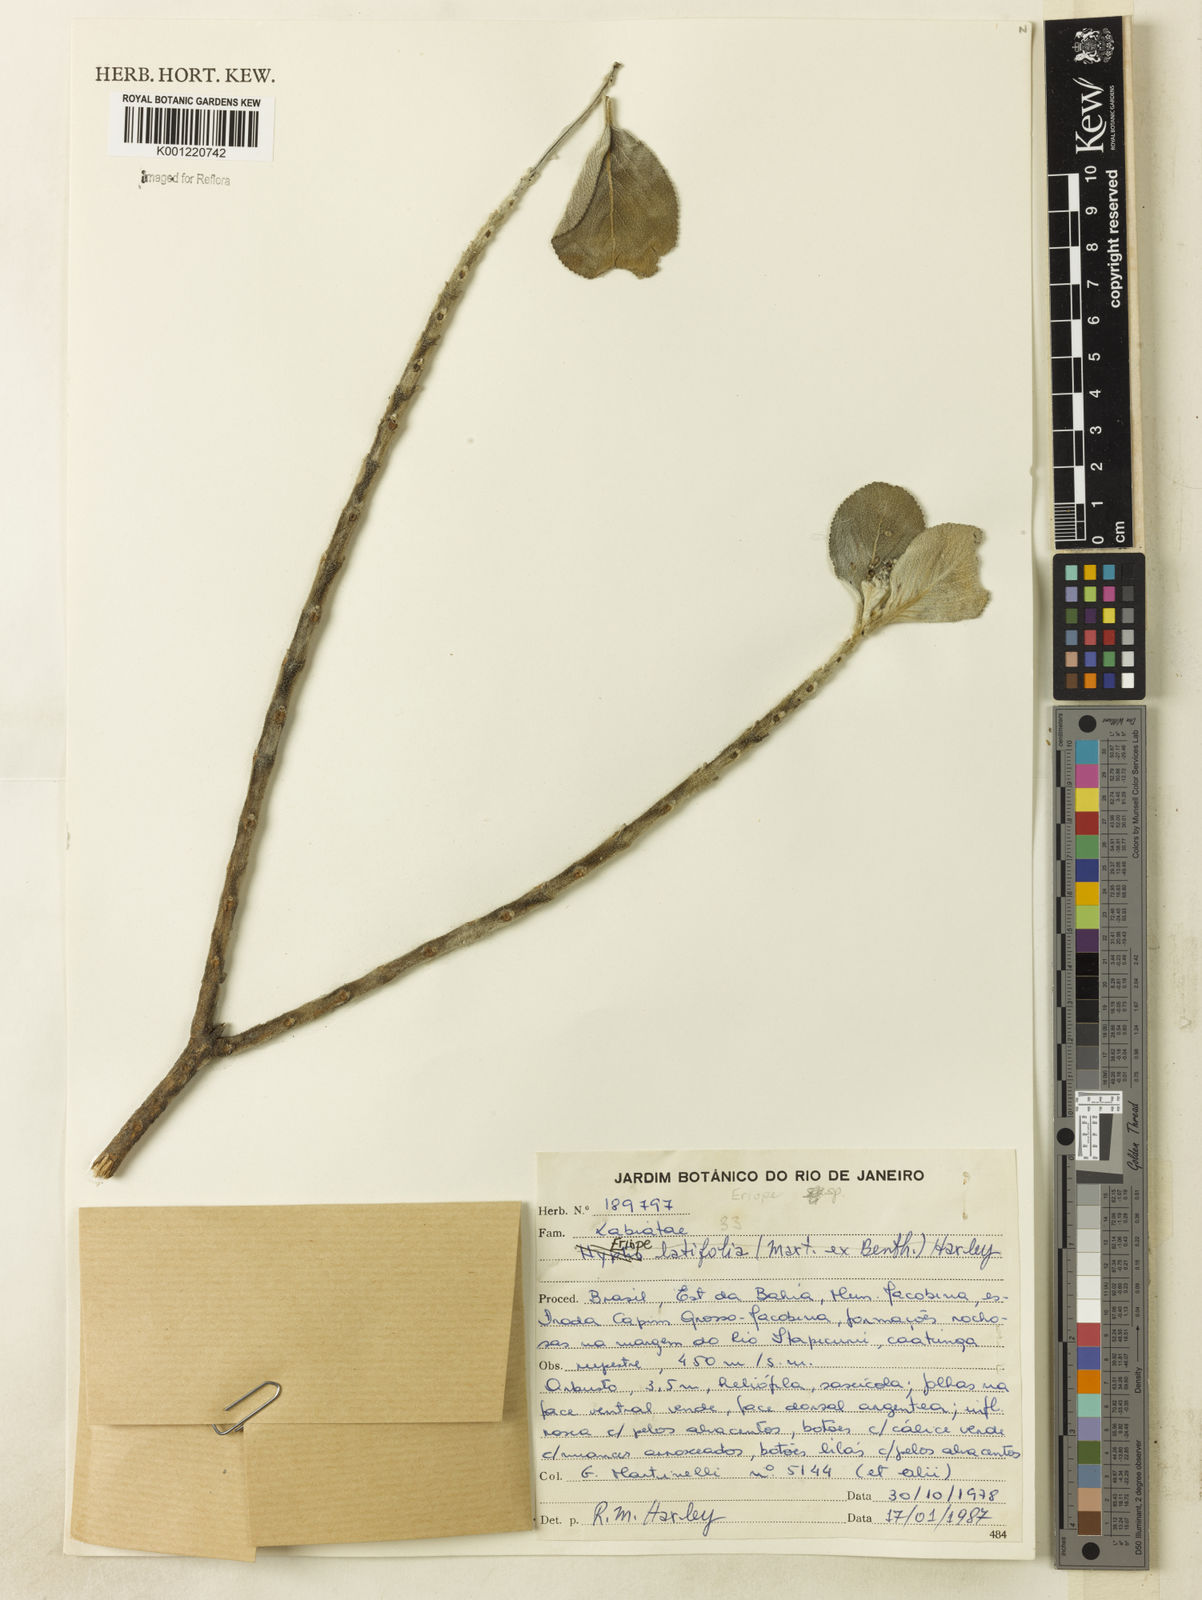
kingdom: Plantae
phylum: Tracheophyta
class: Magnoliopsida
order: Lamiales
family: Lamiaceae
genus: Eriope
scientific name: Eriope latifolia
